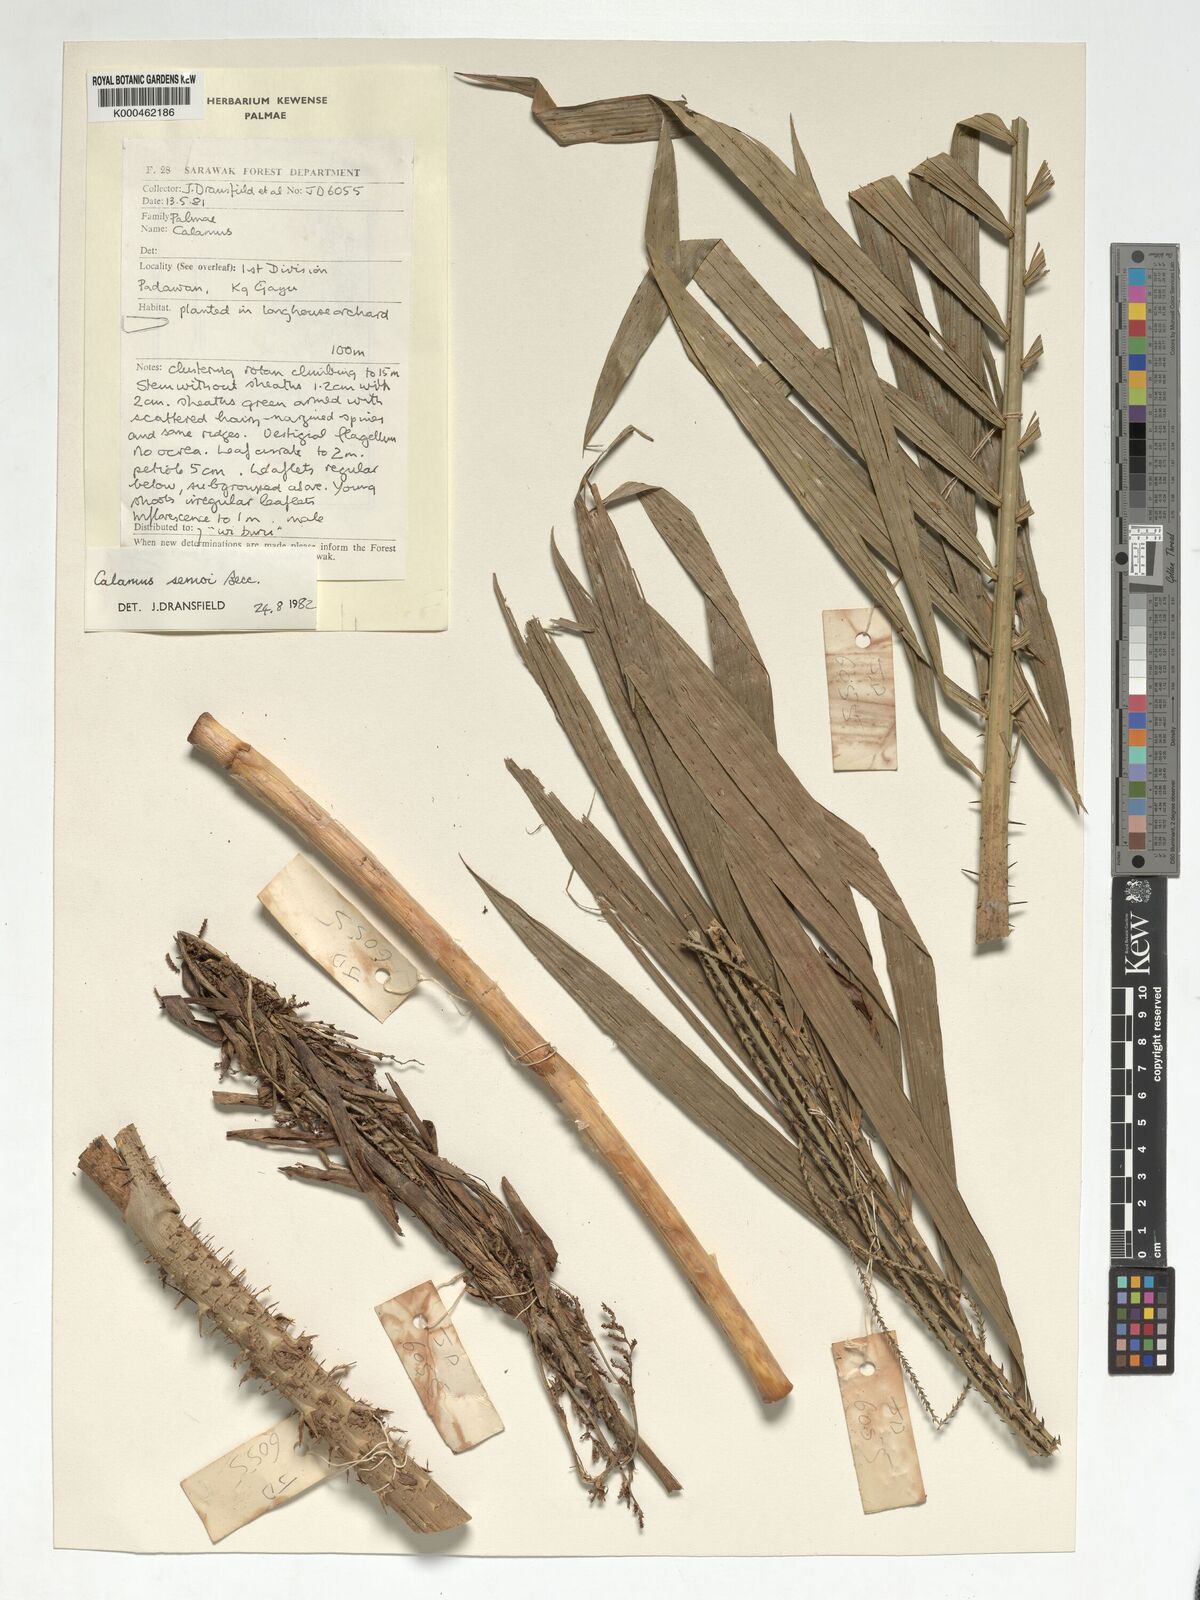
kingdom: Plantae
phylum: Tracheophyta
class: Liliopsida
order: Arecales
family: Arecaceae
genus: Calamus
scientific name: Calamus erioacanthus
